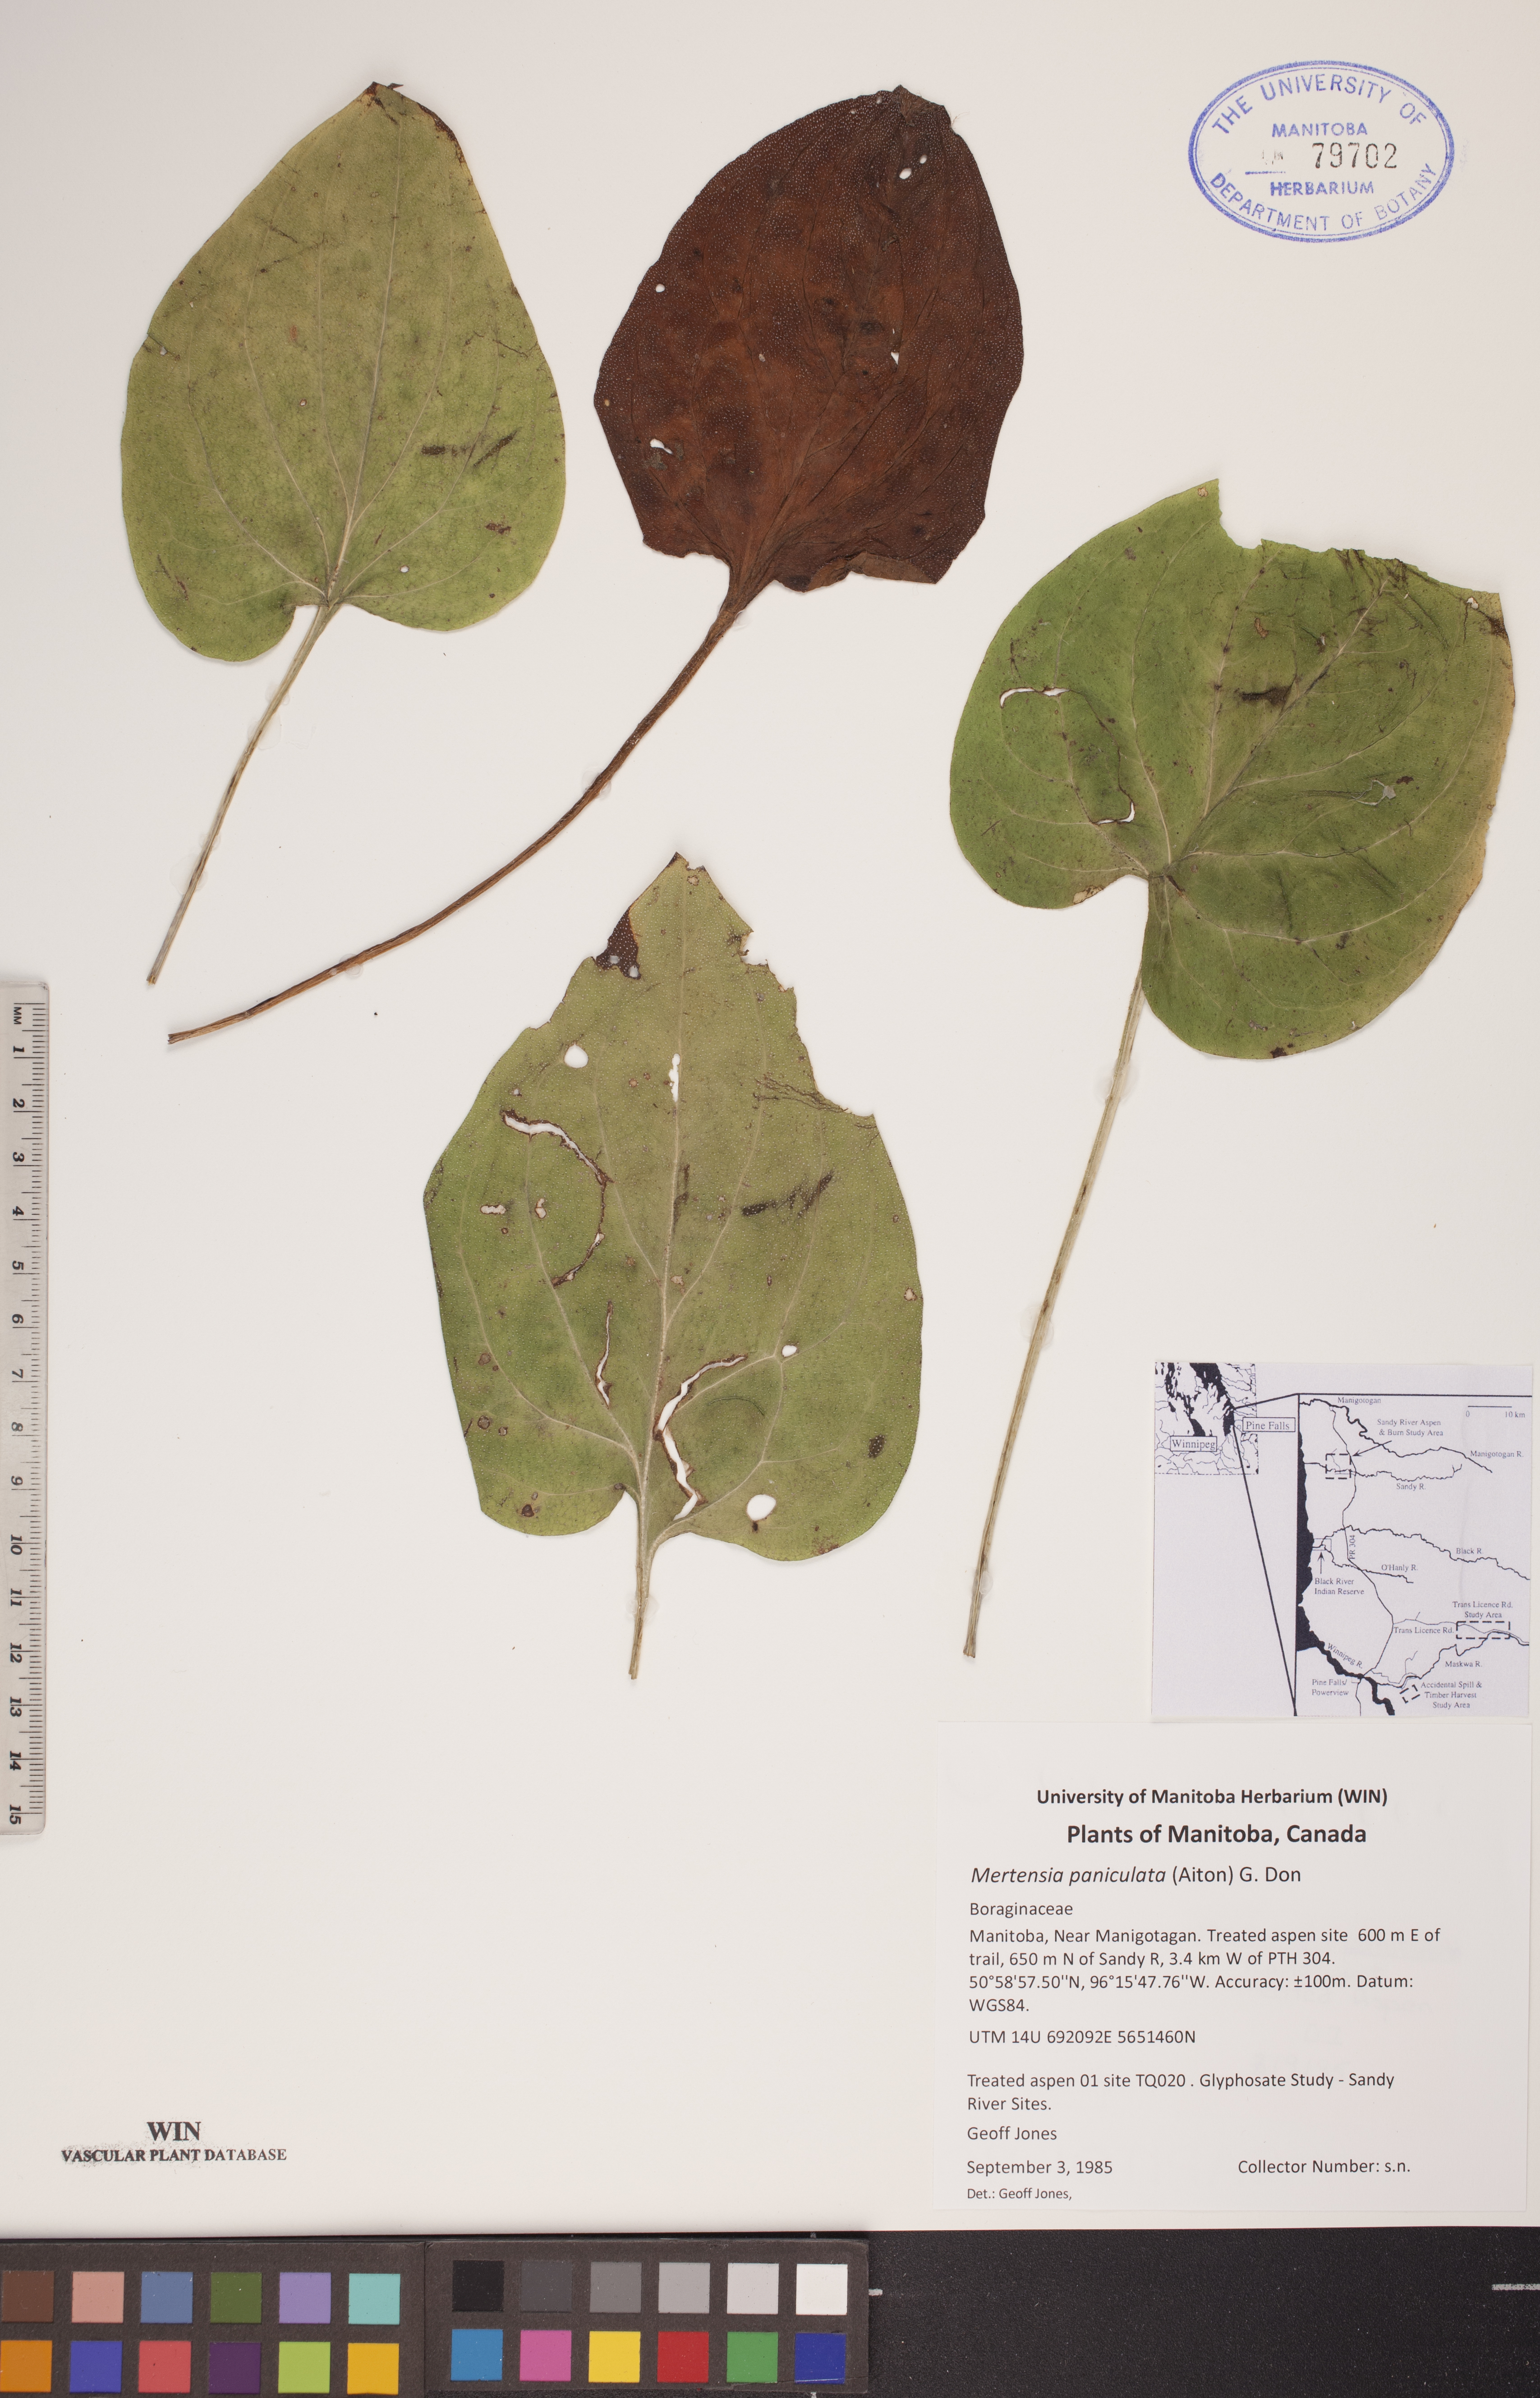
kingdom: Plantae
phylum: Tracheophyta
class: Magnoliopsida
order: Boraginales
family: Boraginaceae
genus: Mertensia
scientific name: Mertensia paniculata
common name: Panicled bluebells
